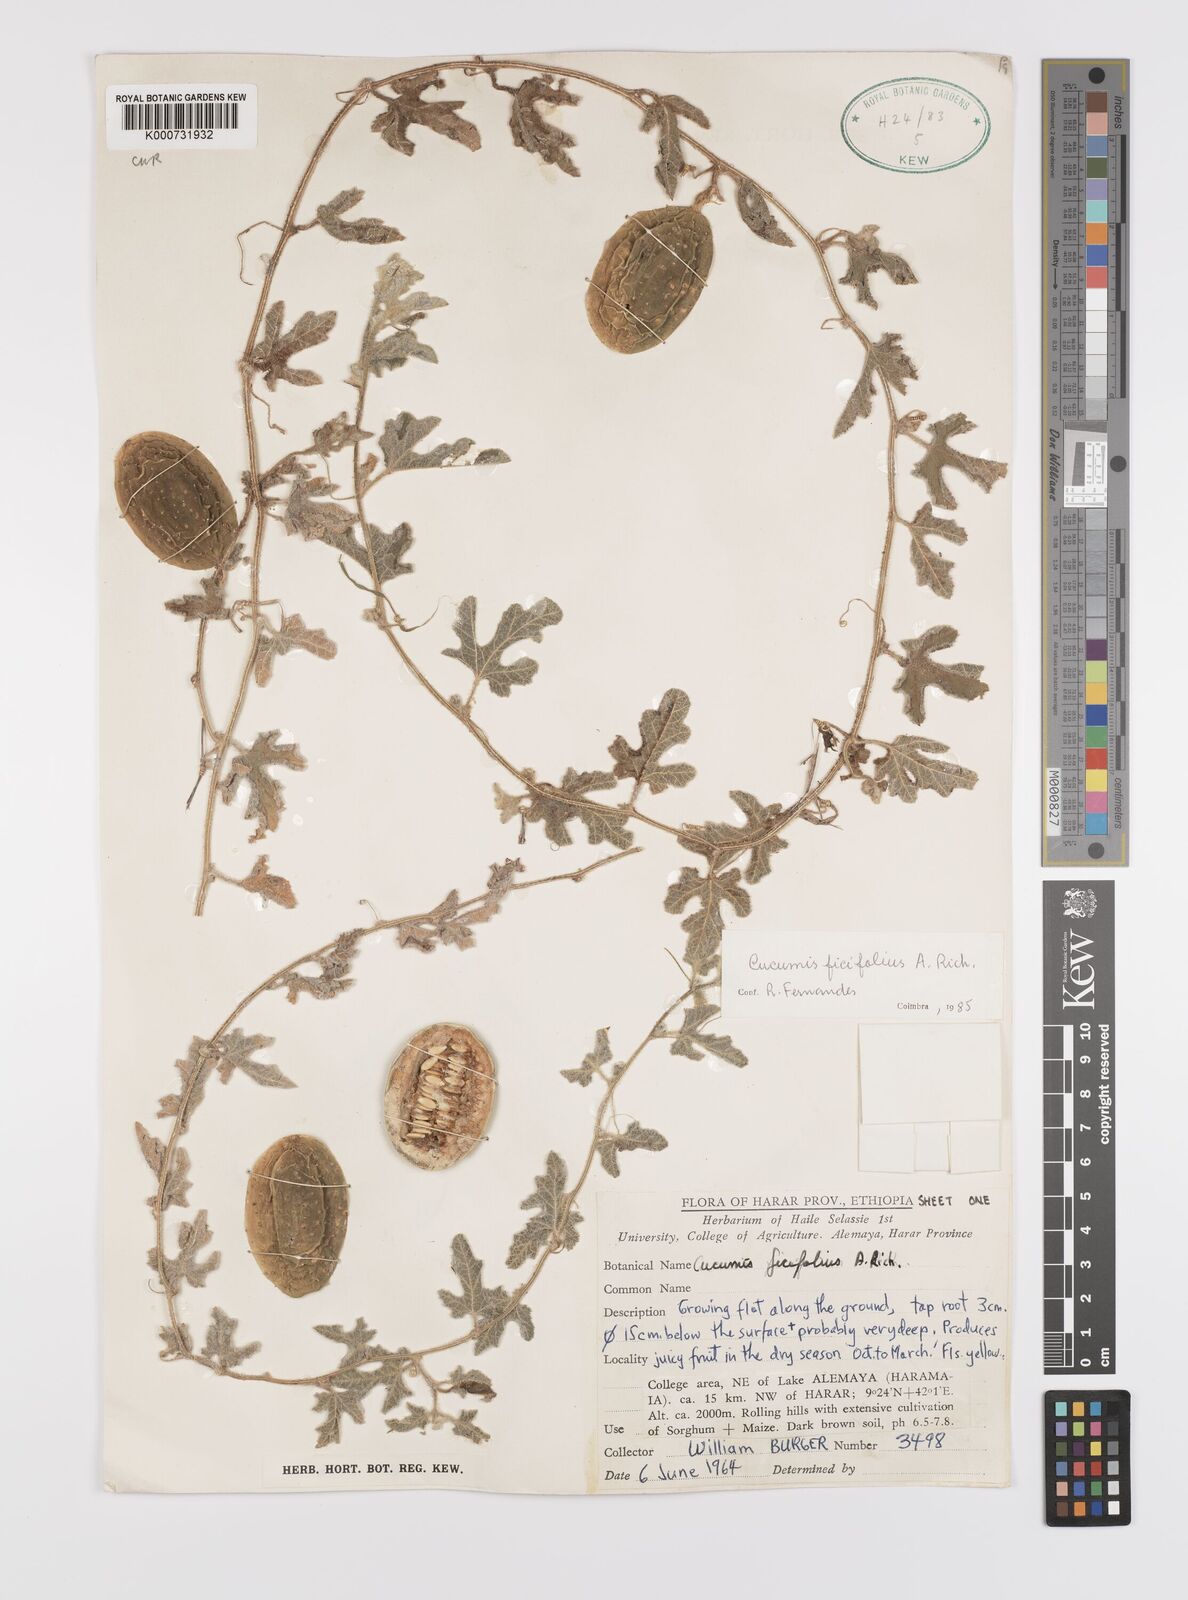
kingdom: Plantae
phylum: Tracheophyta
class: Magnoliopsida
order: Cucurbitales
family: Cucurbitaceae
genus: Cucumis
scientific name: Cucumis ficifolius
